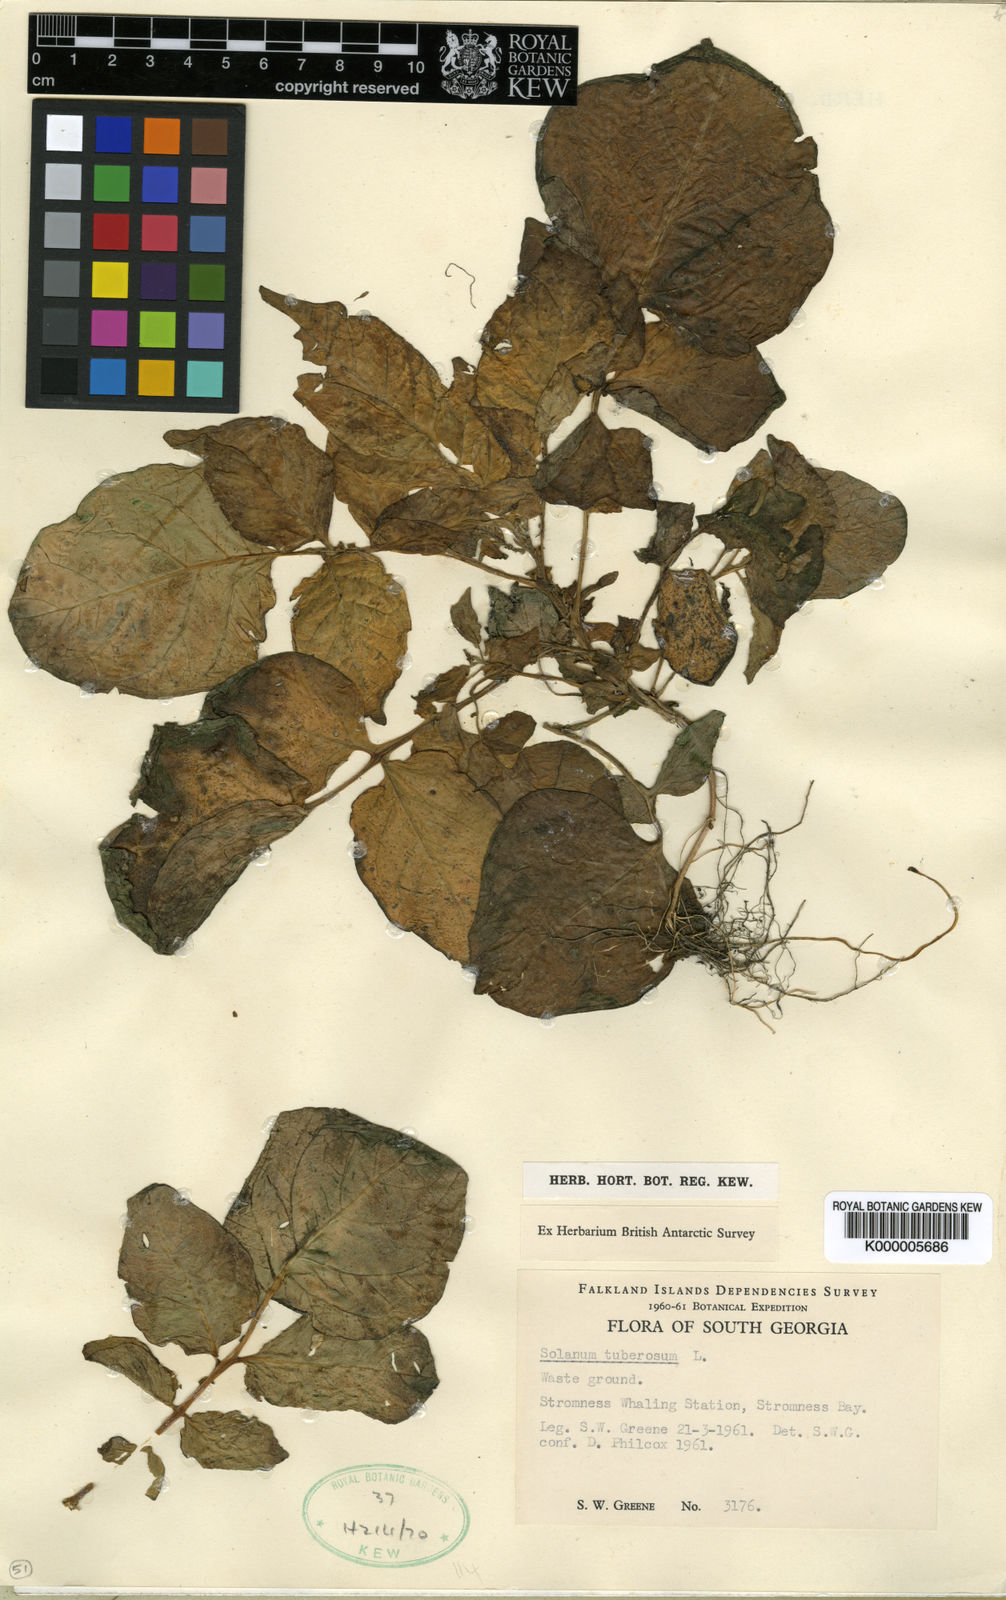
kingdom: Plantae
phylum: Tracheophyta
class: Magnoliopsida
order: Solanales
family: Solanaceae
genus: Solanum
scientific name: Solanum tuberosum
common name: Potato
